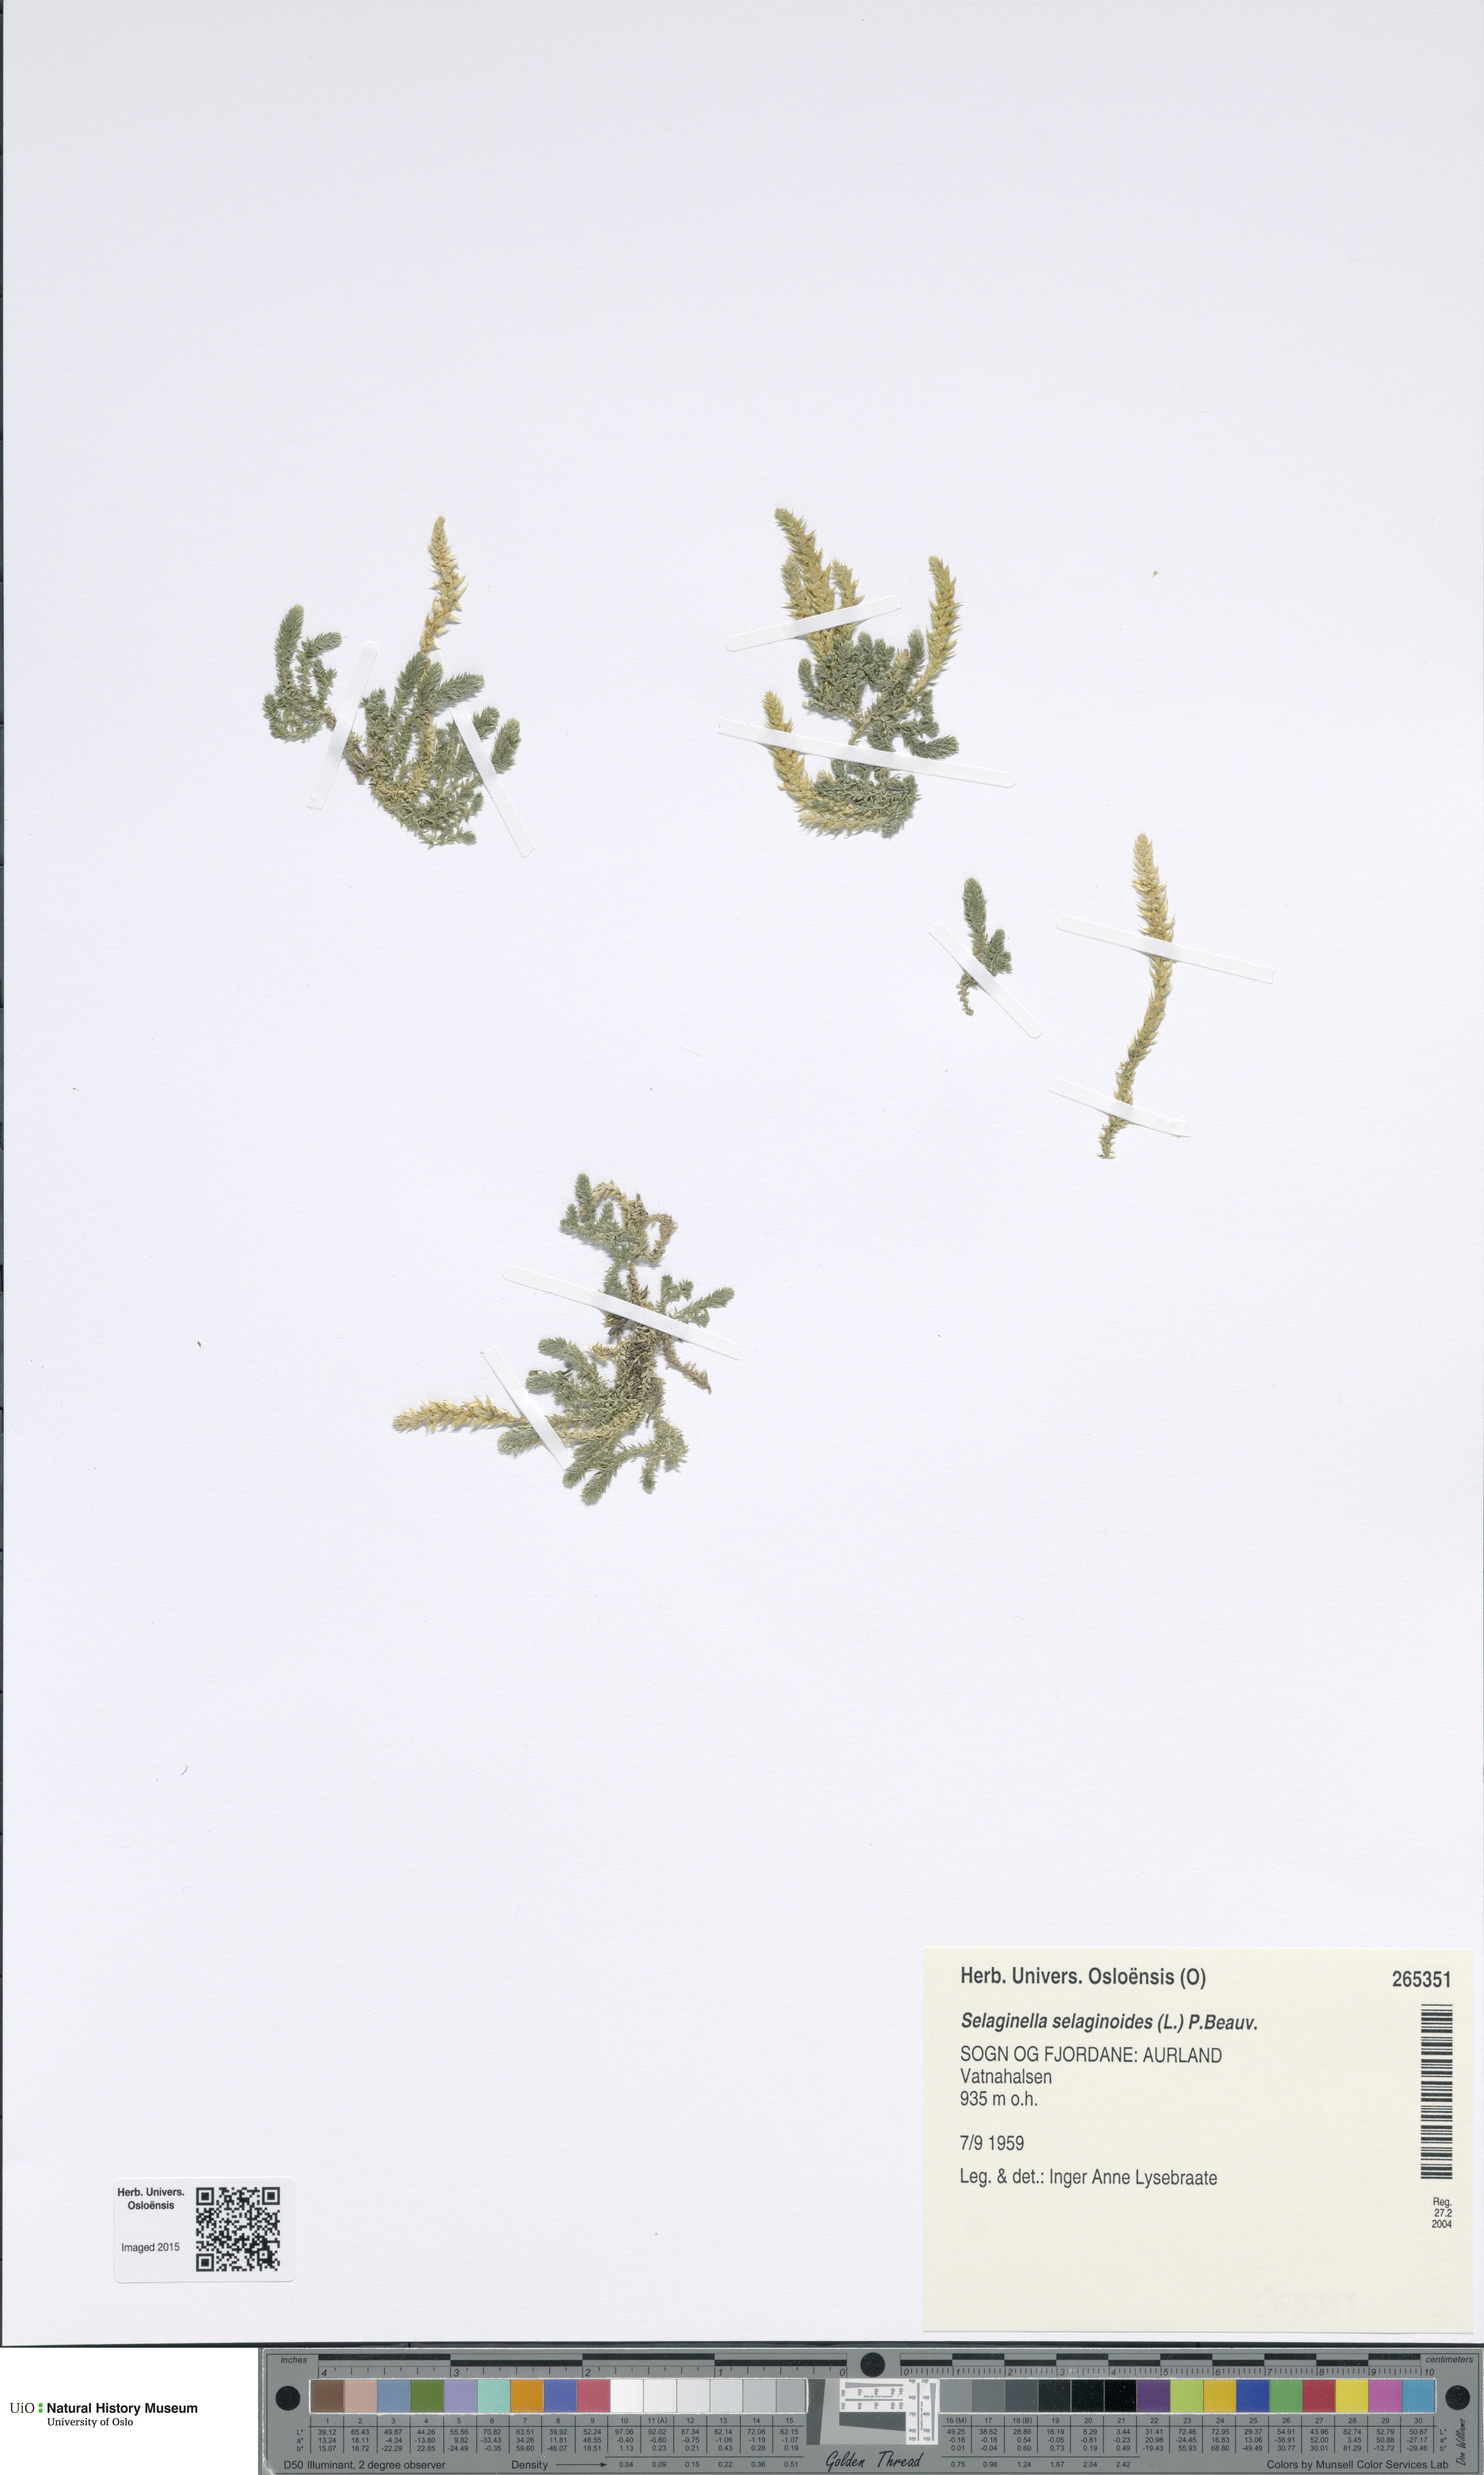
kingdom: Plantae
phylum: Tracheophyta
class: Lycopodiopsida
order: Selaginellales
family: Selaginellaceae
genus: Selaginella
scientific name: Selaginella selaginoides
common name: Prickly mountain-moss
